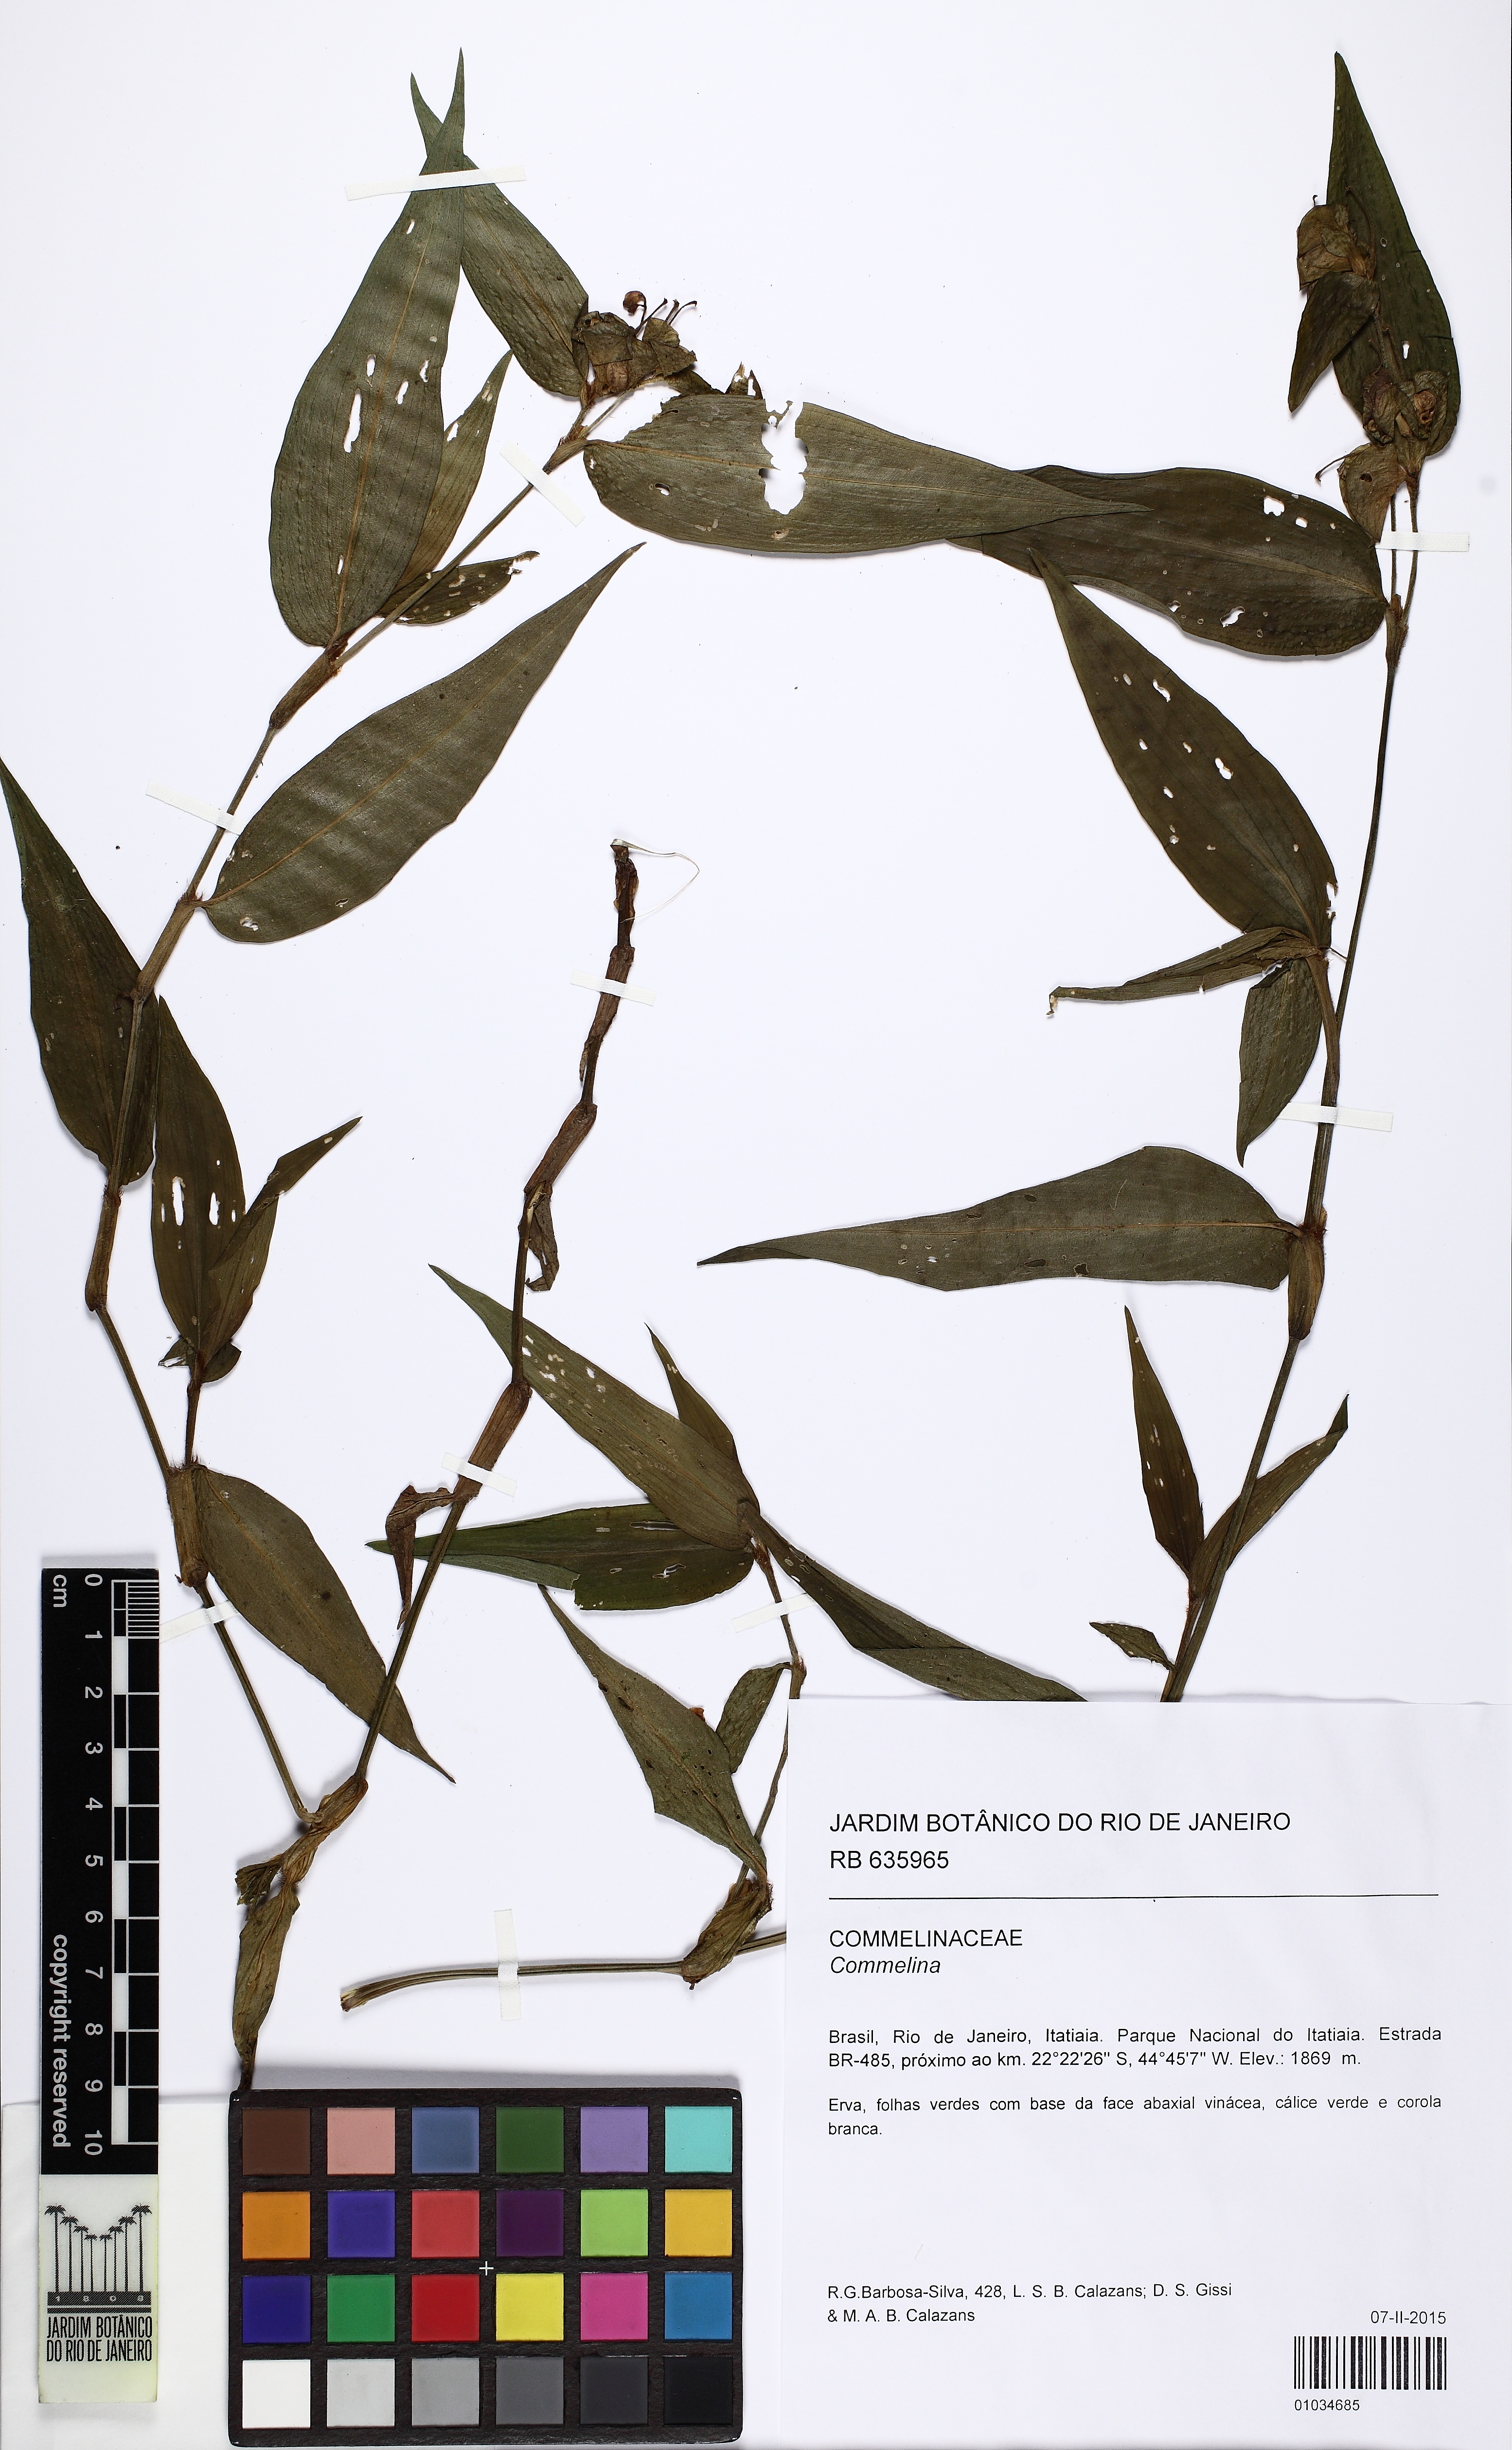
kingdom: Plantae
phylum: Tracheophyta
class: Liliopsida
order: Commelinales
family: Commelinaceae
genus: Commelina
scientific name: Commelina huntii
